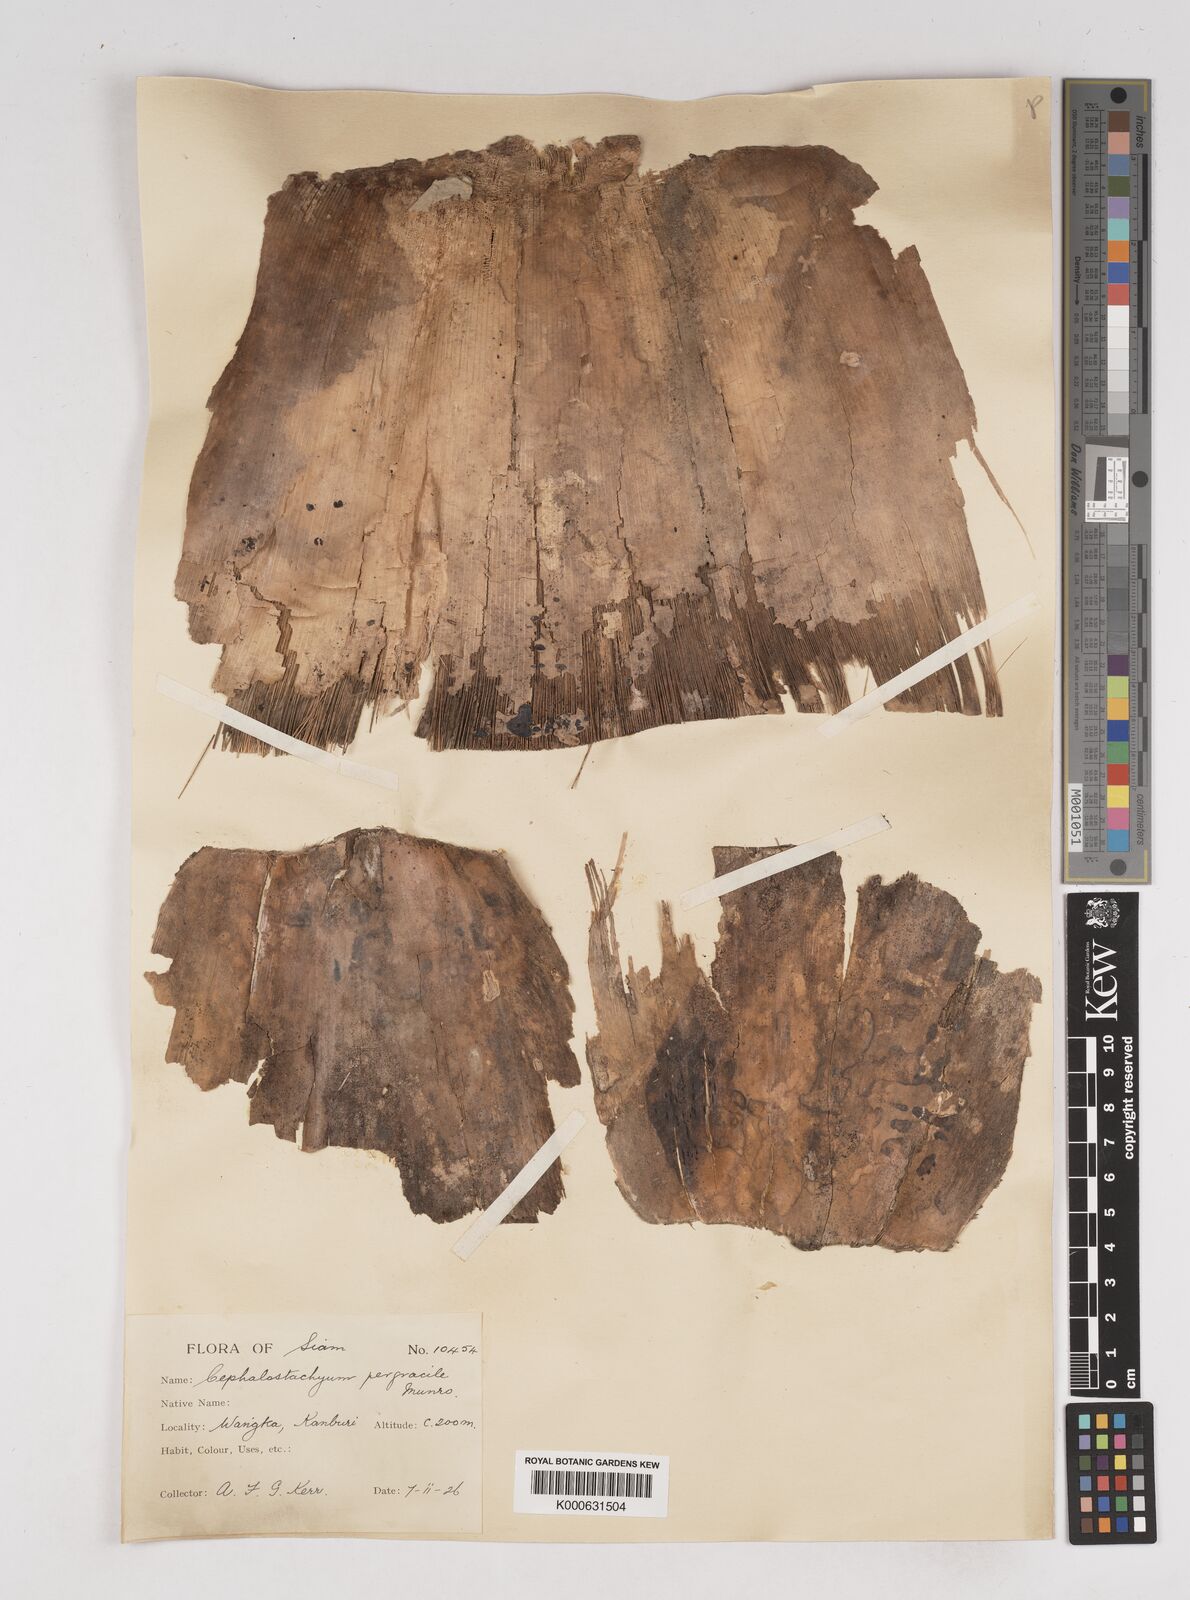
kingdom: Plantae
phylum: Tracheophyta
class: Liliopsida
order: Poales
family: Poaceae
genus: Schizostachyum
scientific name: Schizostachyum pergracile
